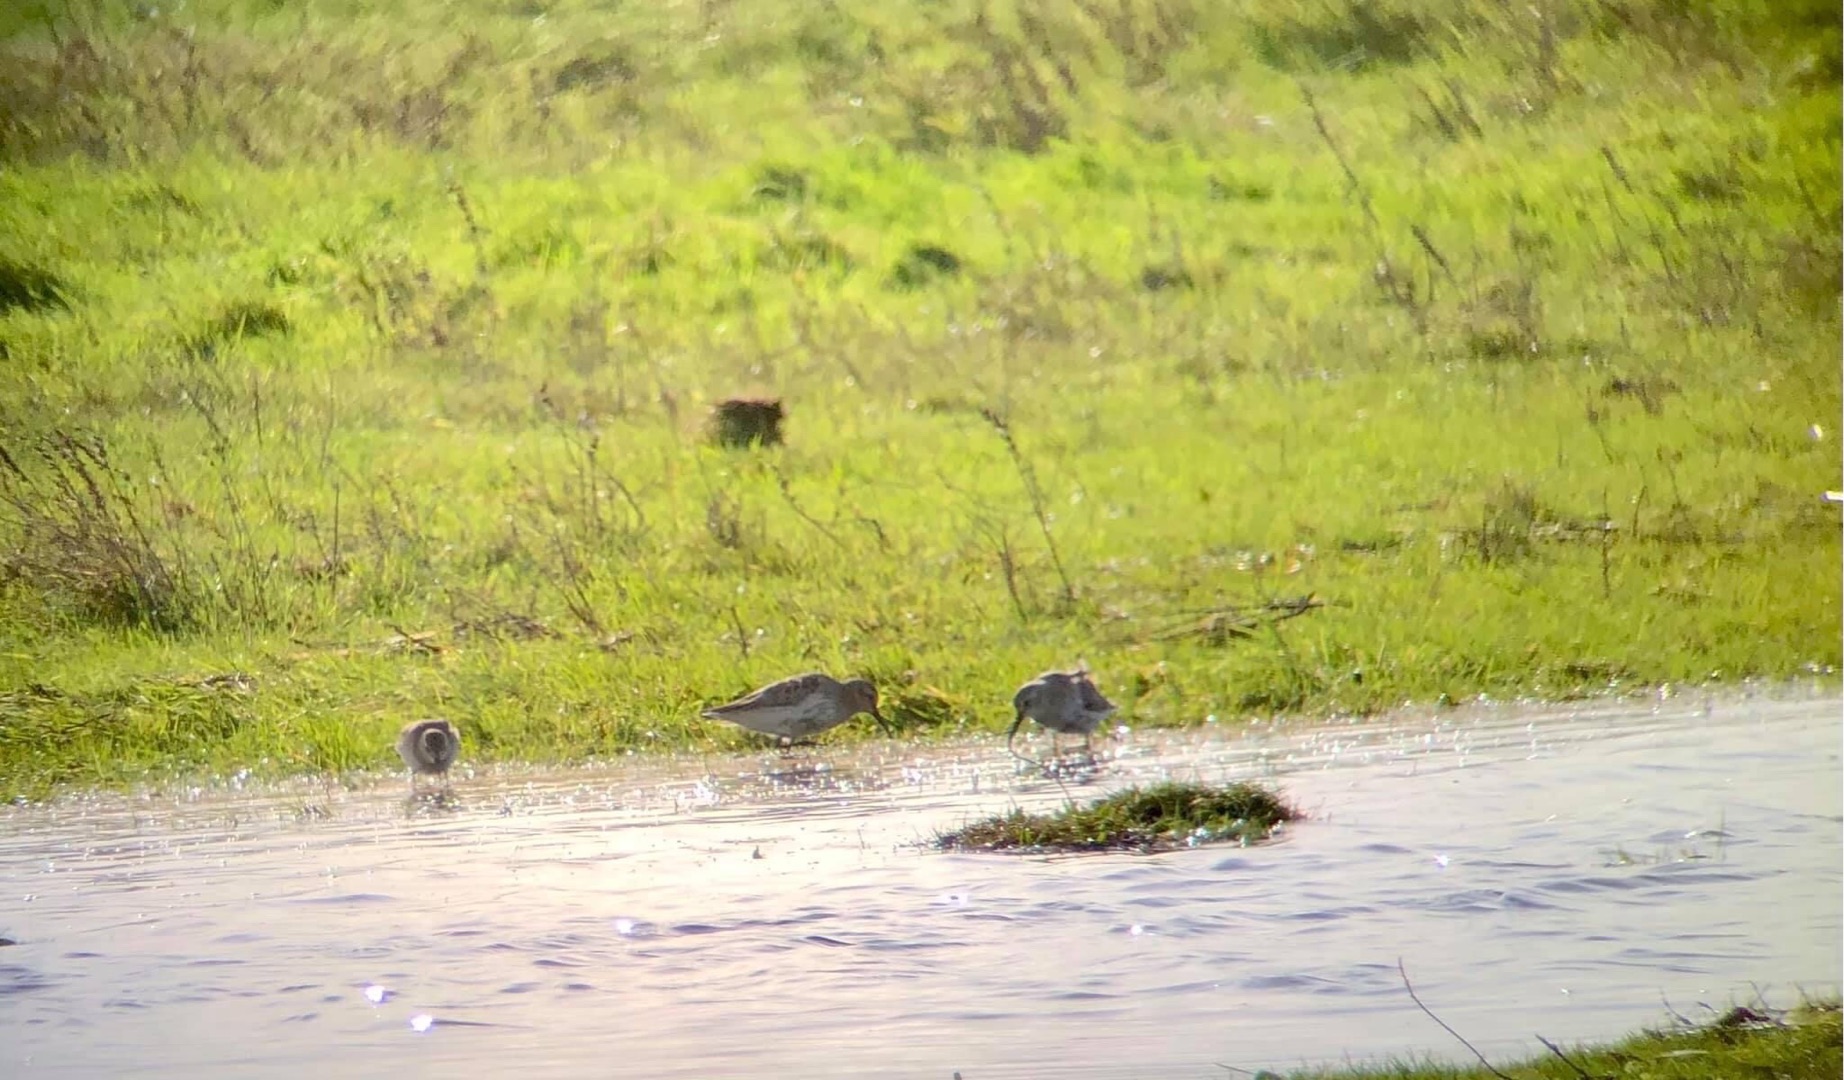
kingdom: Animalia
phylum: Chordata
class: Aves
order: Charadriiformes
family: Scolopacidae
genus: Calidris
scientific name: Calidris bairdii
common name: Bairdsryle
